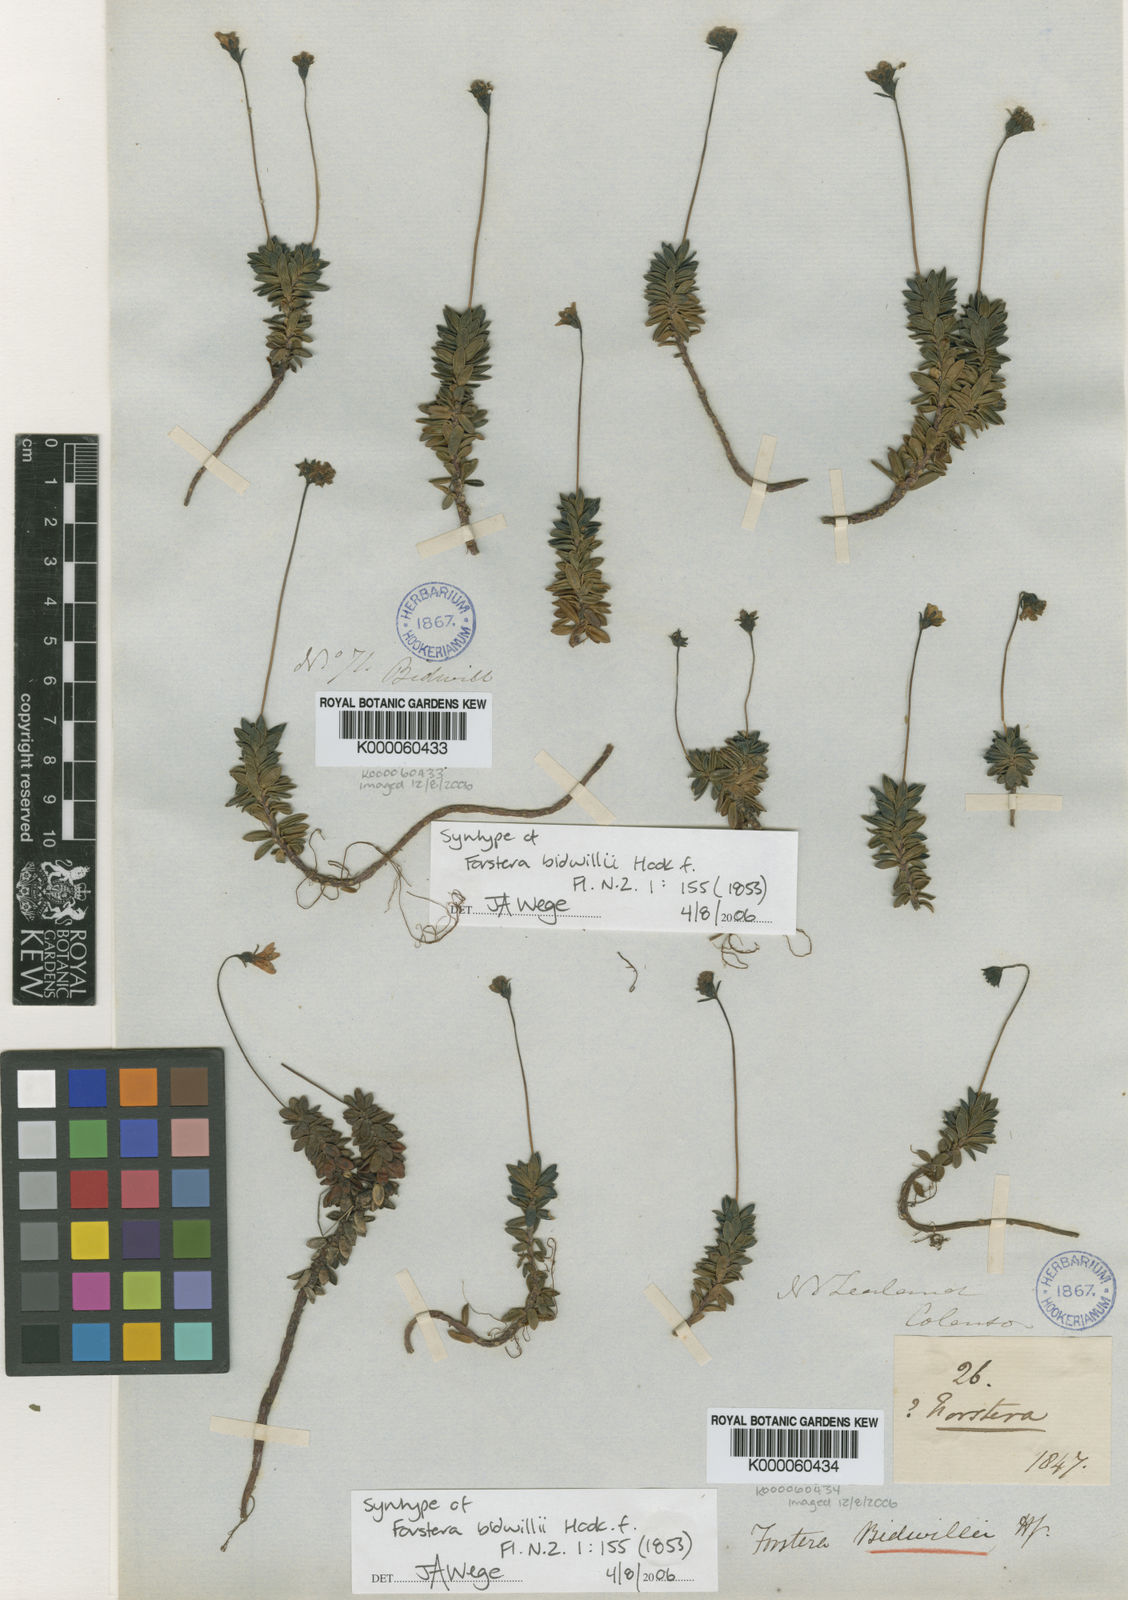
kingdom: Plantae
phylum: Tracheophyta
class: Magnoliopsida
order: Asterales
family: Stylidiaceae
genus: Forstera
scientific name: Forstera tenella
